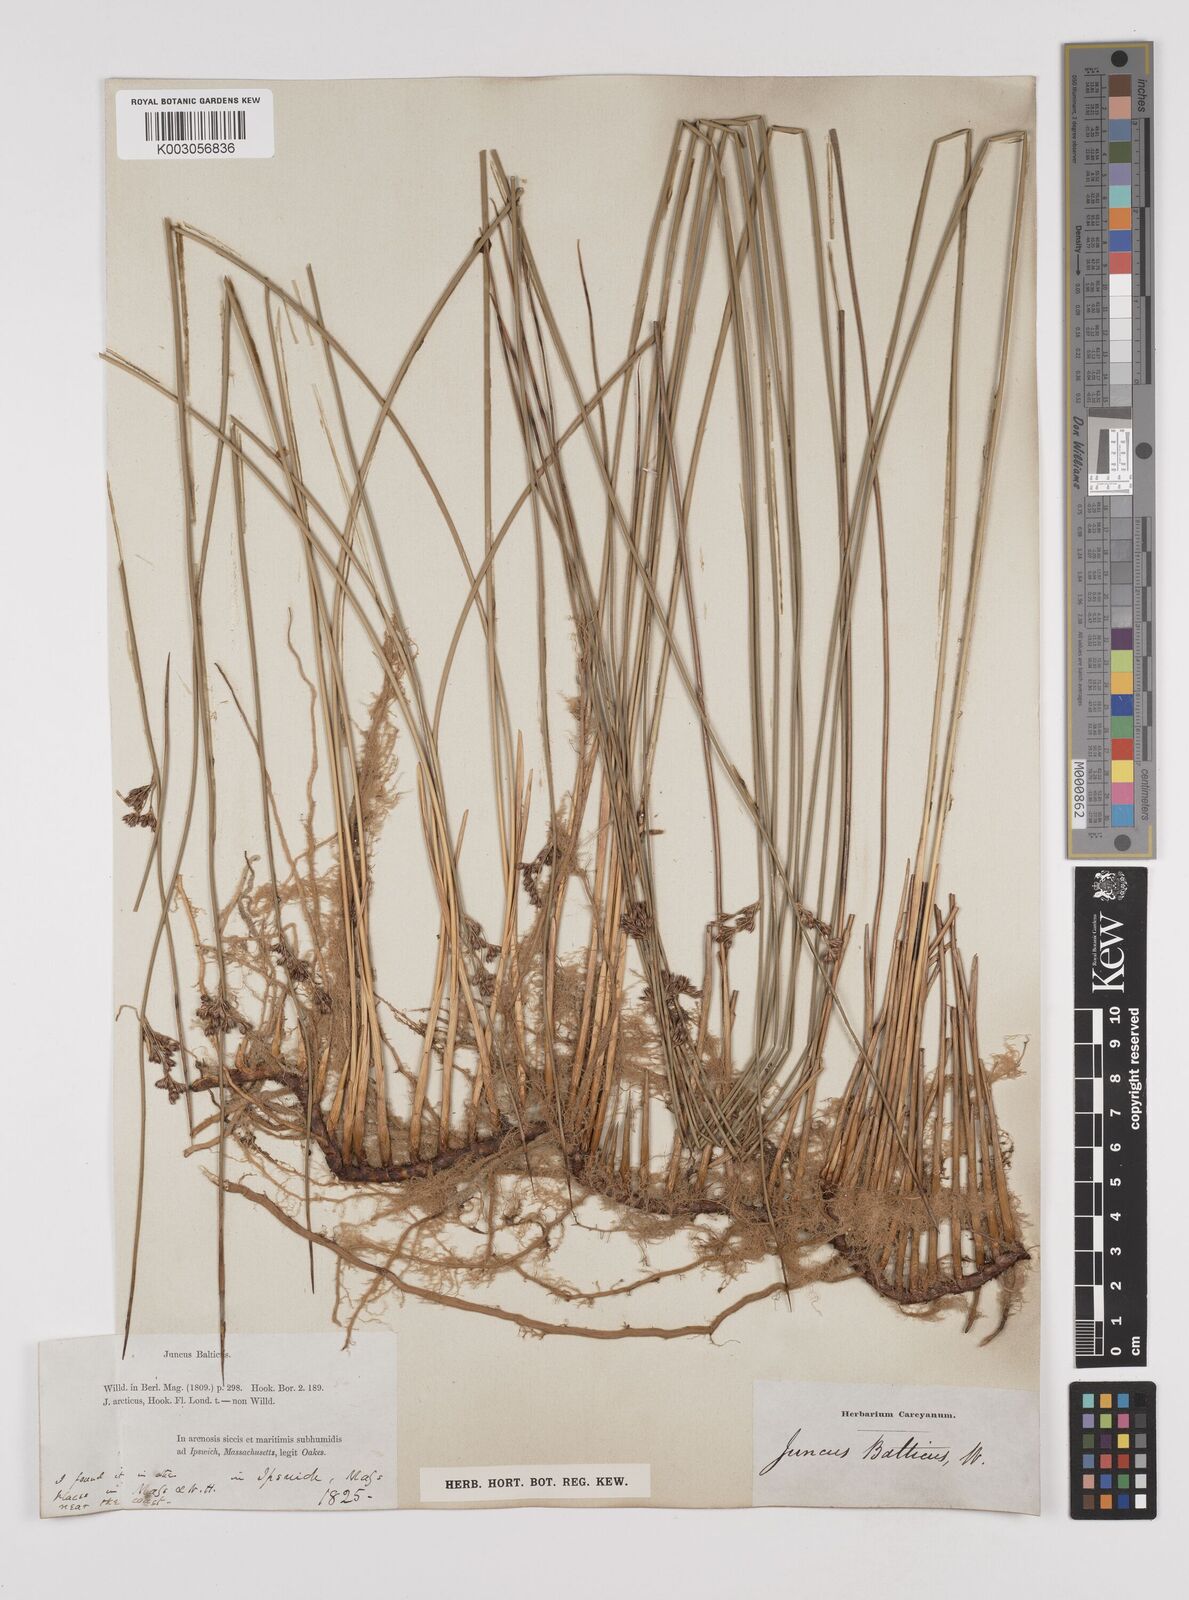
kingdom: Plantae
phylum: Tracheophyta
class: Liliopsida
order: Poales
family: Juncaceae
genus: Juncus
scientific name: Juncus balticus
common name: Baltic rush
